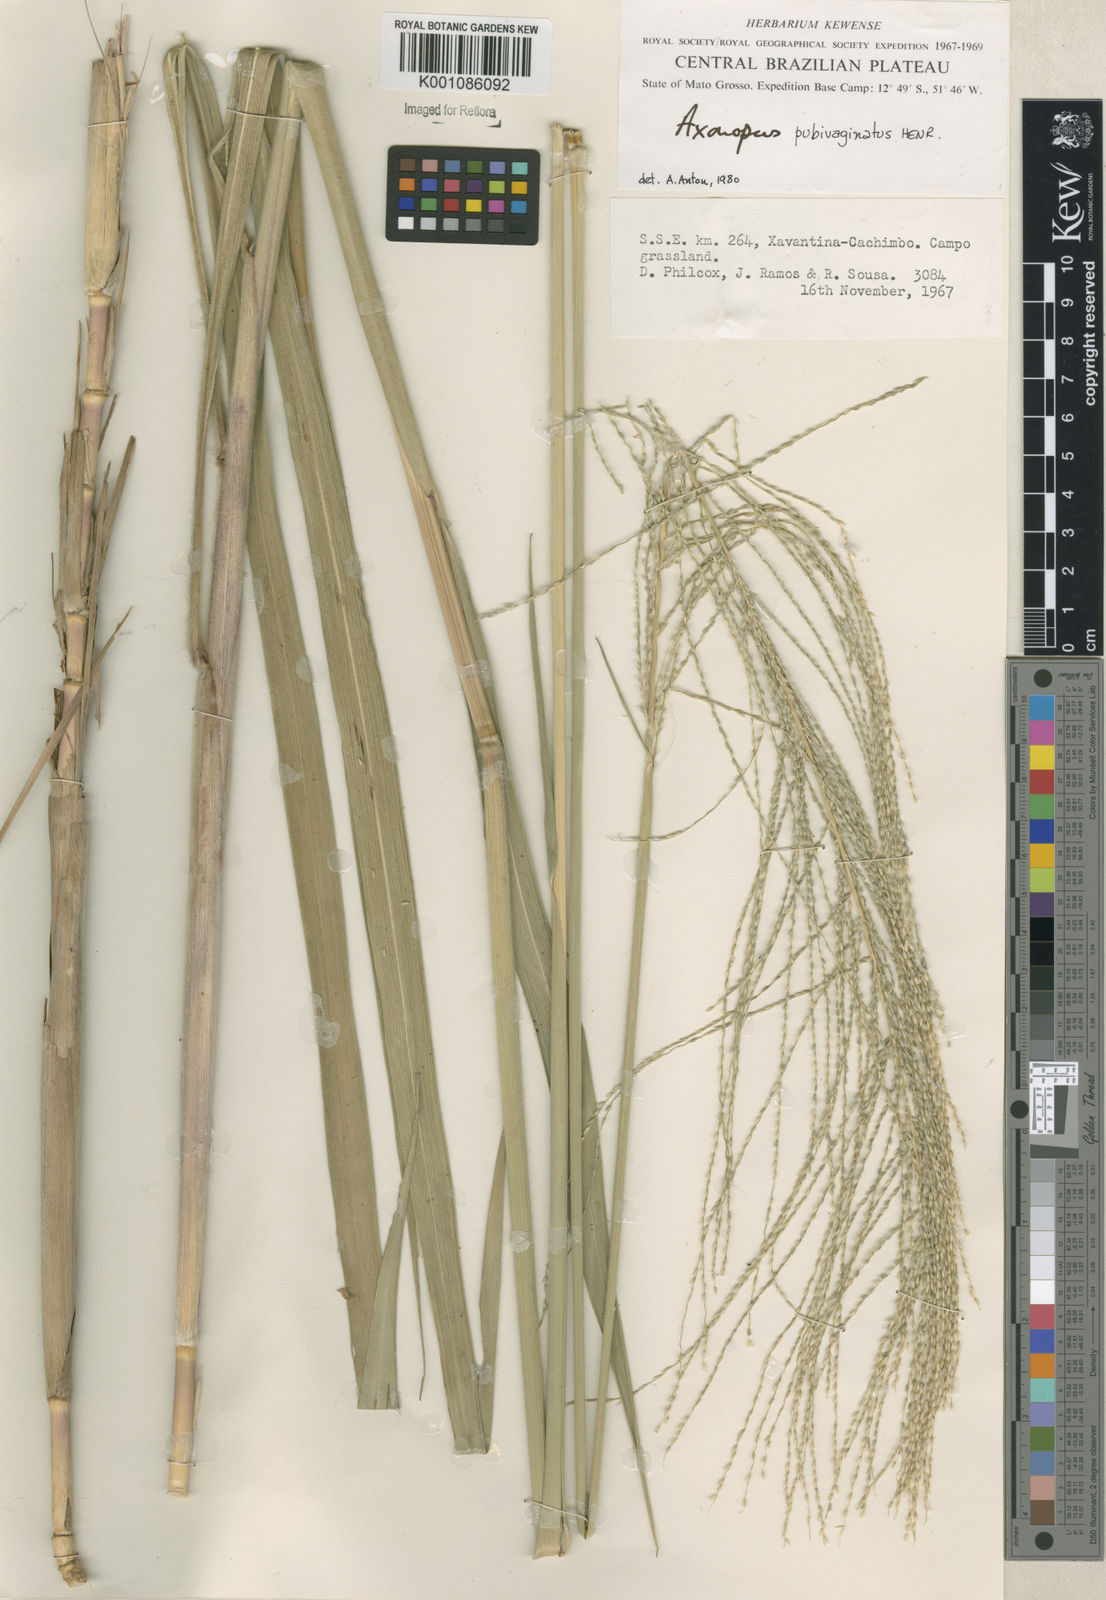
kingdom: Plantae
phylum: Tracheophyta
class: Liliopsida
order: Poales
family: Poaceae
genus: Axonopus
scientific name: Axonopus pubivaginatus
